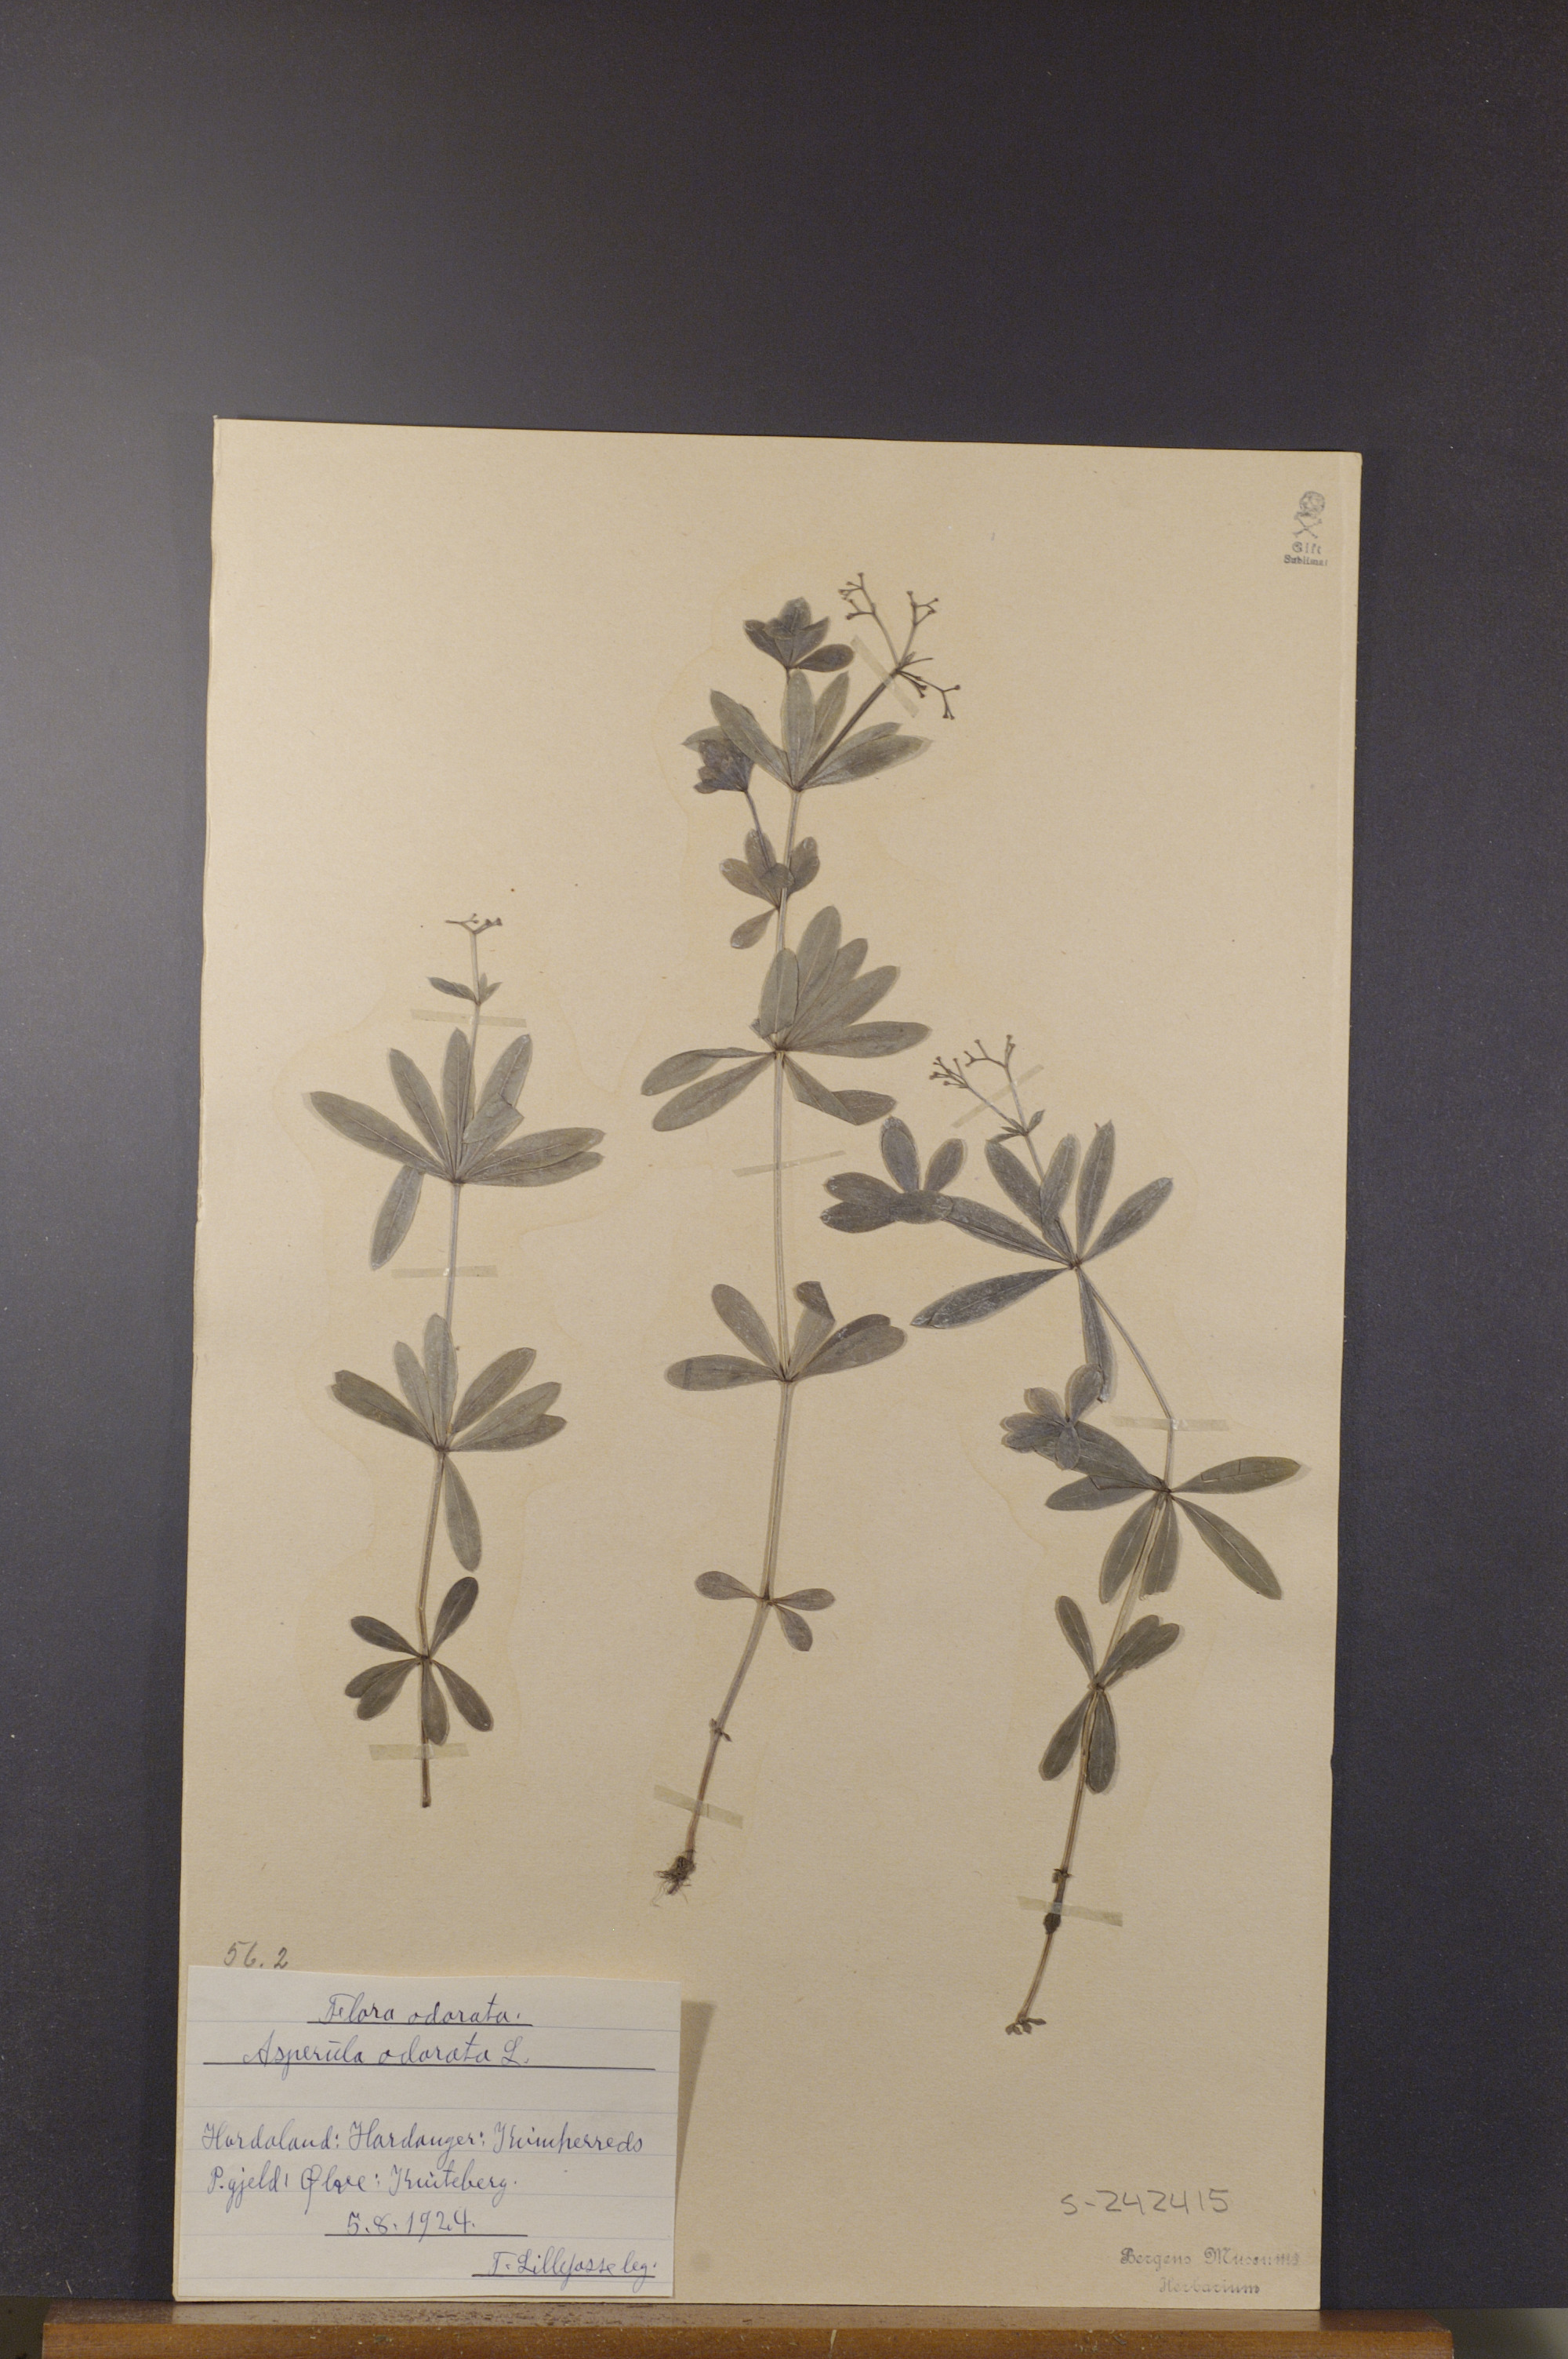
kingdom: Plantae
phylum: Tracheophyta
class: Magnoliopsida
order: Gentianales
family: Rubiaceae
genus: Galium
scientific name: Galium odoratum
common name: Sweet woodruff
